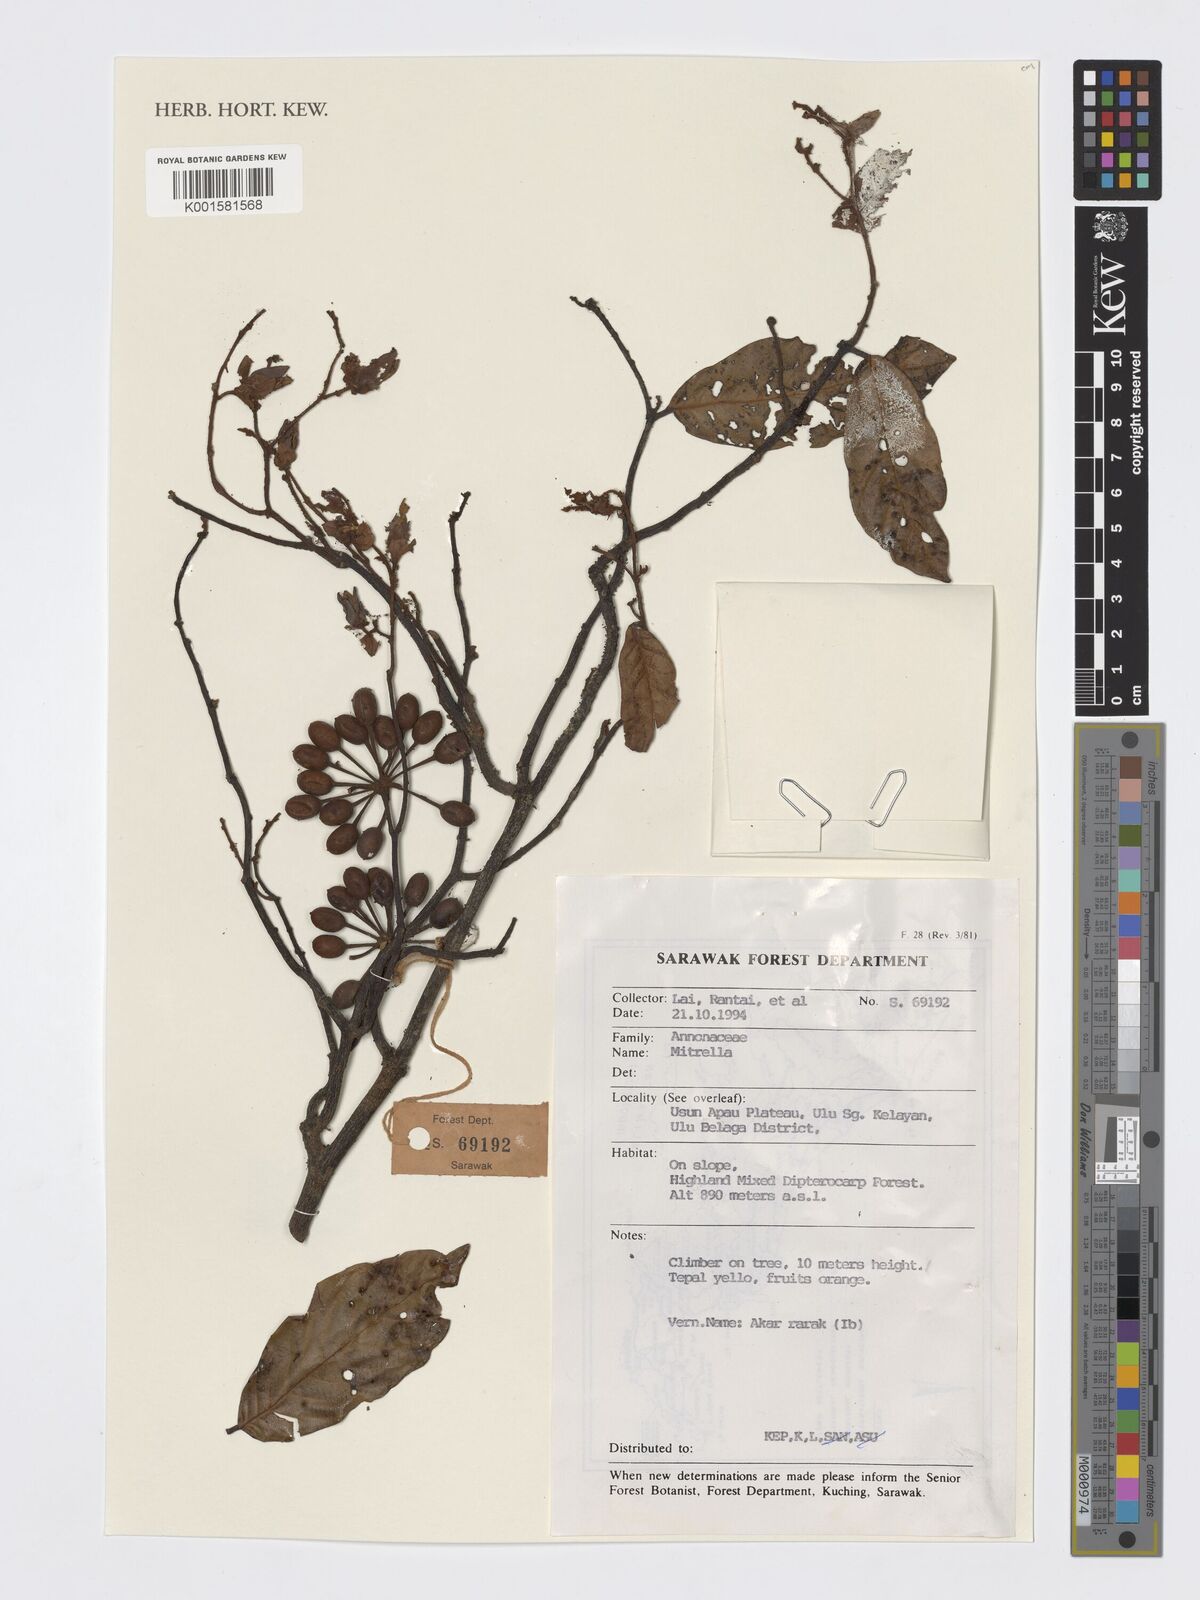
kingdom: Plantae
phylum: Tracheophyta
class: Magnoliopsida
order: Magnoliales
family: Annonaceae
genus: Mitrella
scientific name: Mitrella
